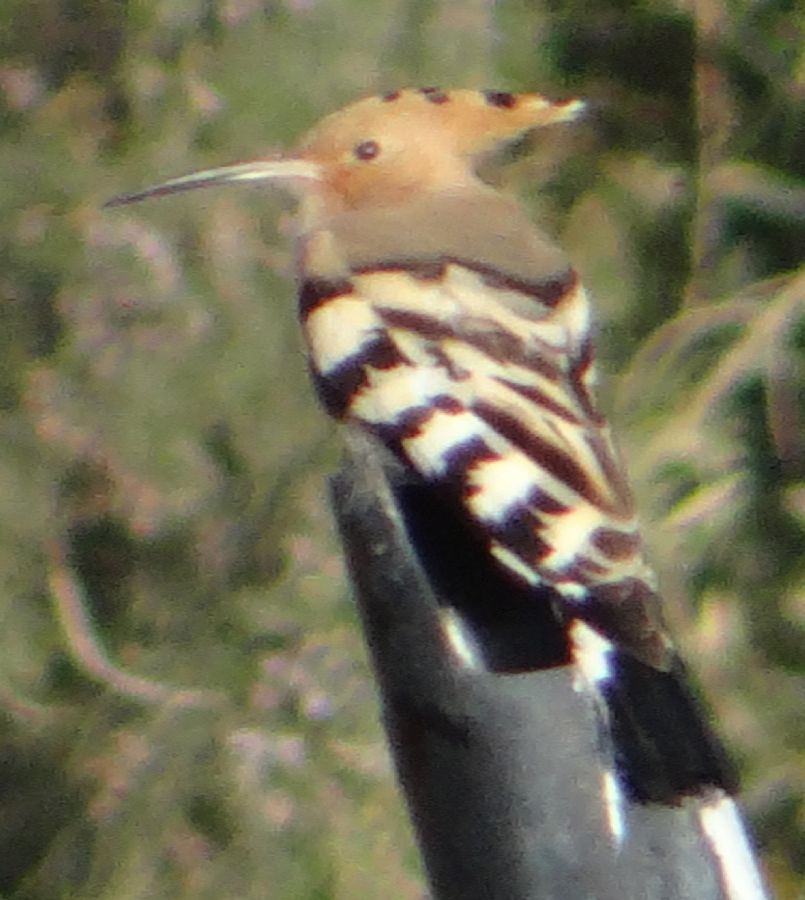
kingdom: Animalia
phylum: Chordata
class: Aves
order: Bucerotiformes
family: Upupidae
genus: Upupa
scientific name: Upupa epops
